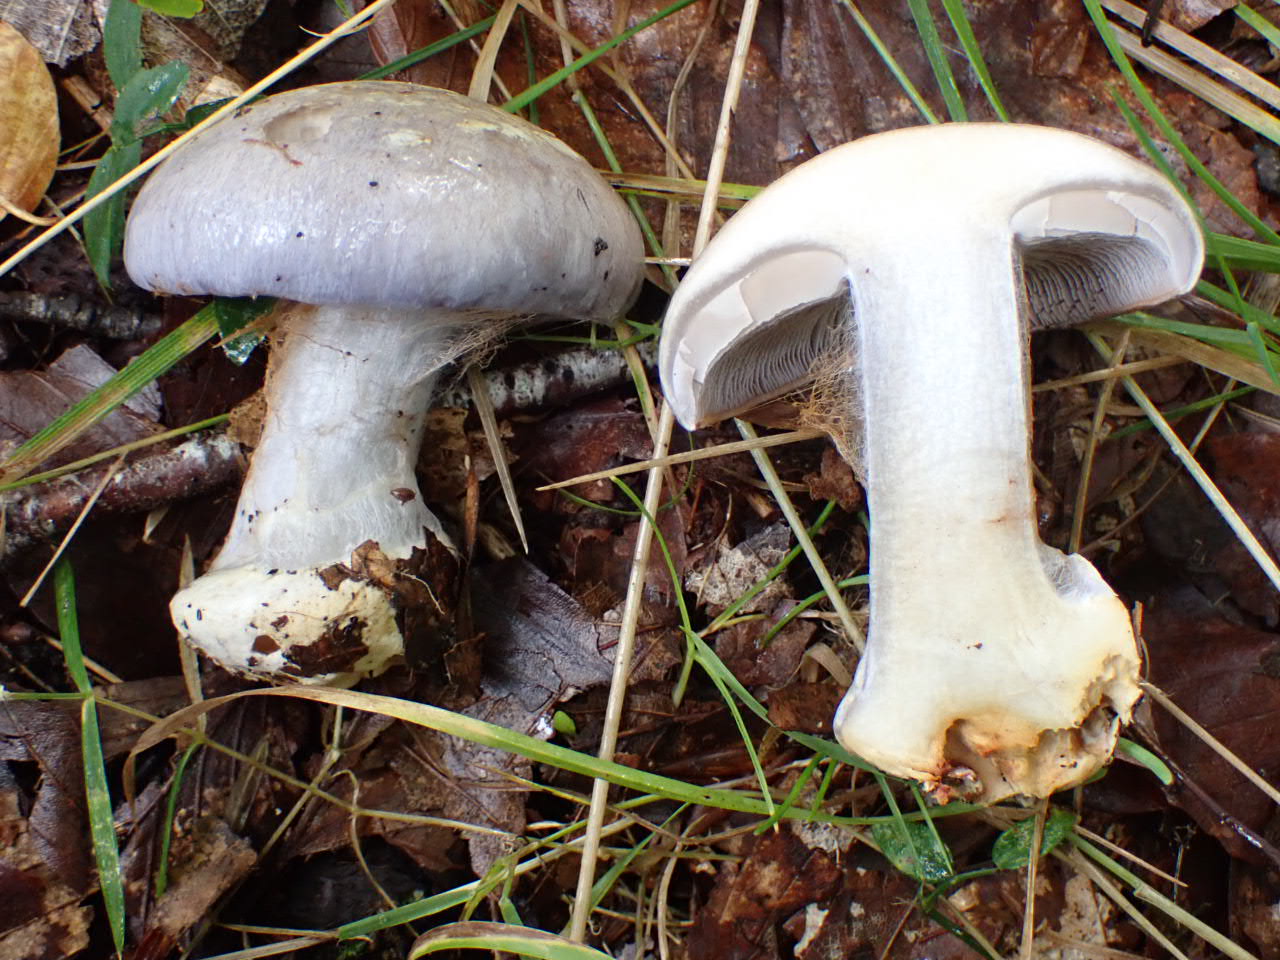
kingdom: Fungi
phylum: Basidiomycota
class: Agaricomycetes
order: Agaricales
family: Cortinariaceae
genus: Cortinarius
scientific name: Cortinarius caerulescens
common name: blåkødet slørhat
